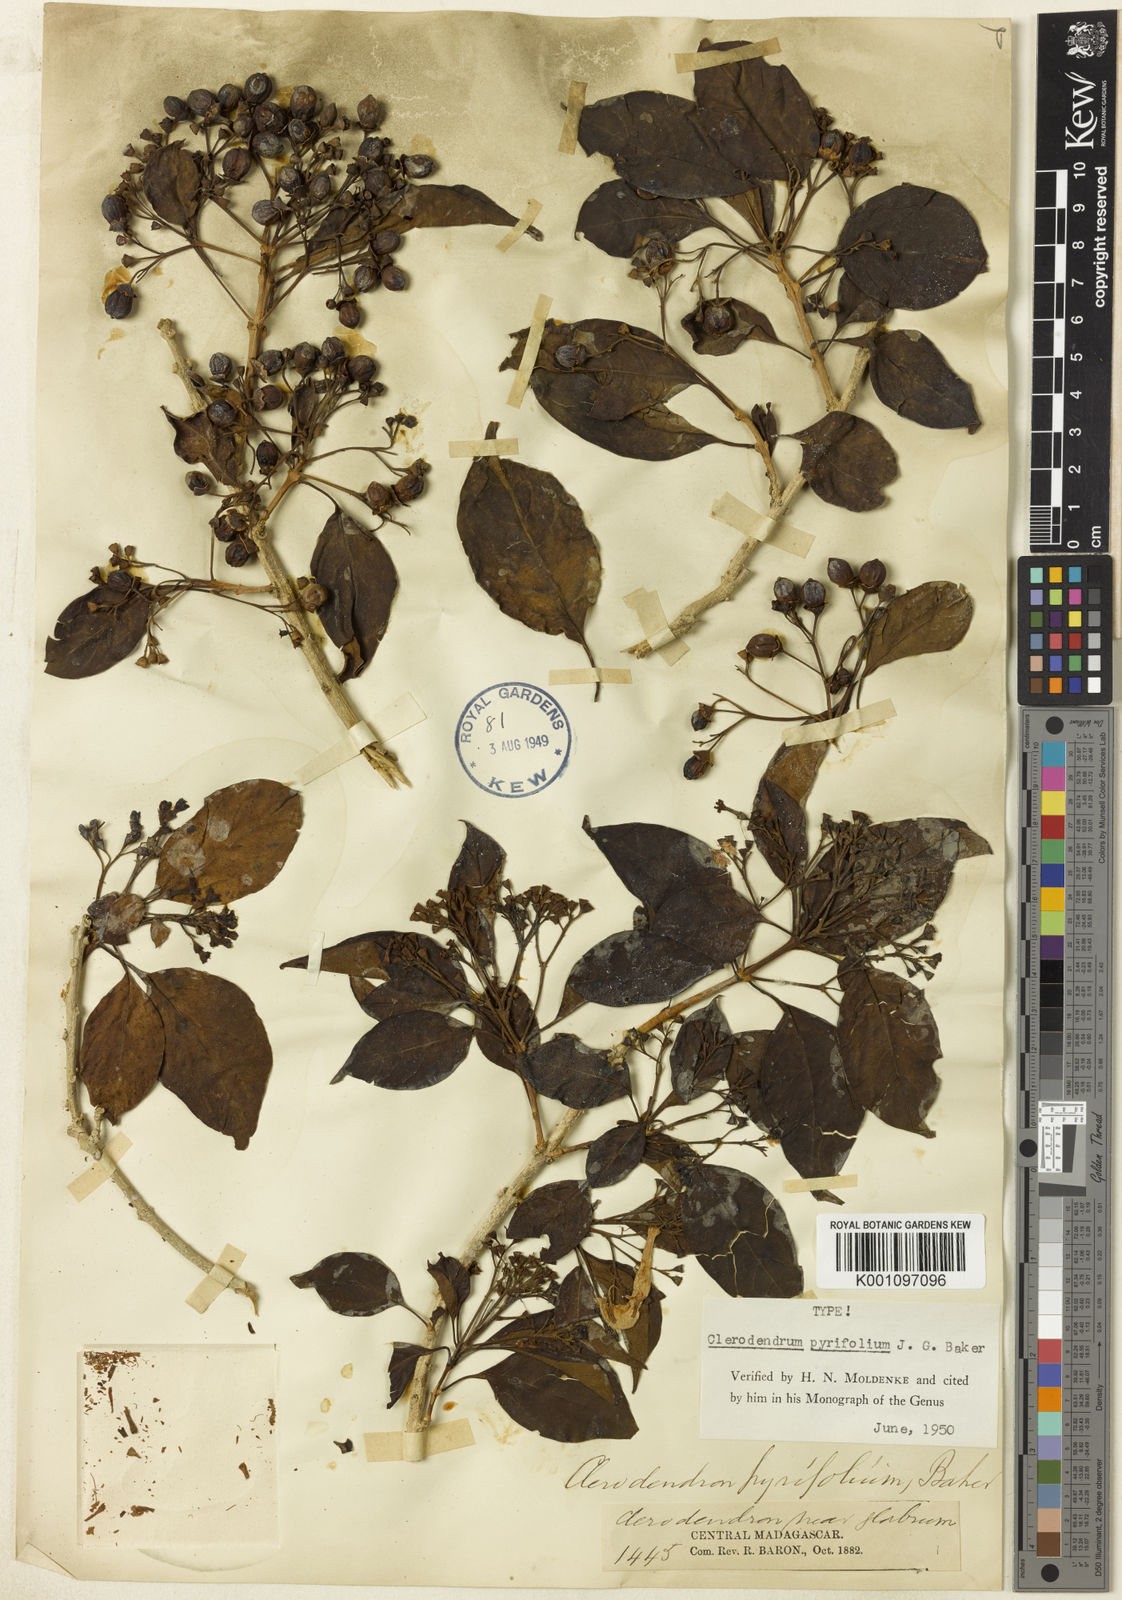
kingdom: Plantae
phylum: Tracheophyta
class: Magnoliopsida
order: Lamiales
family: Lamiaceae
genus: Clerodendrum
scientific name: Clerodendrum pyrifolium
